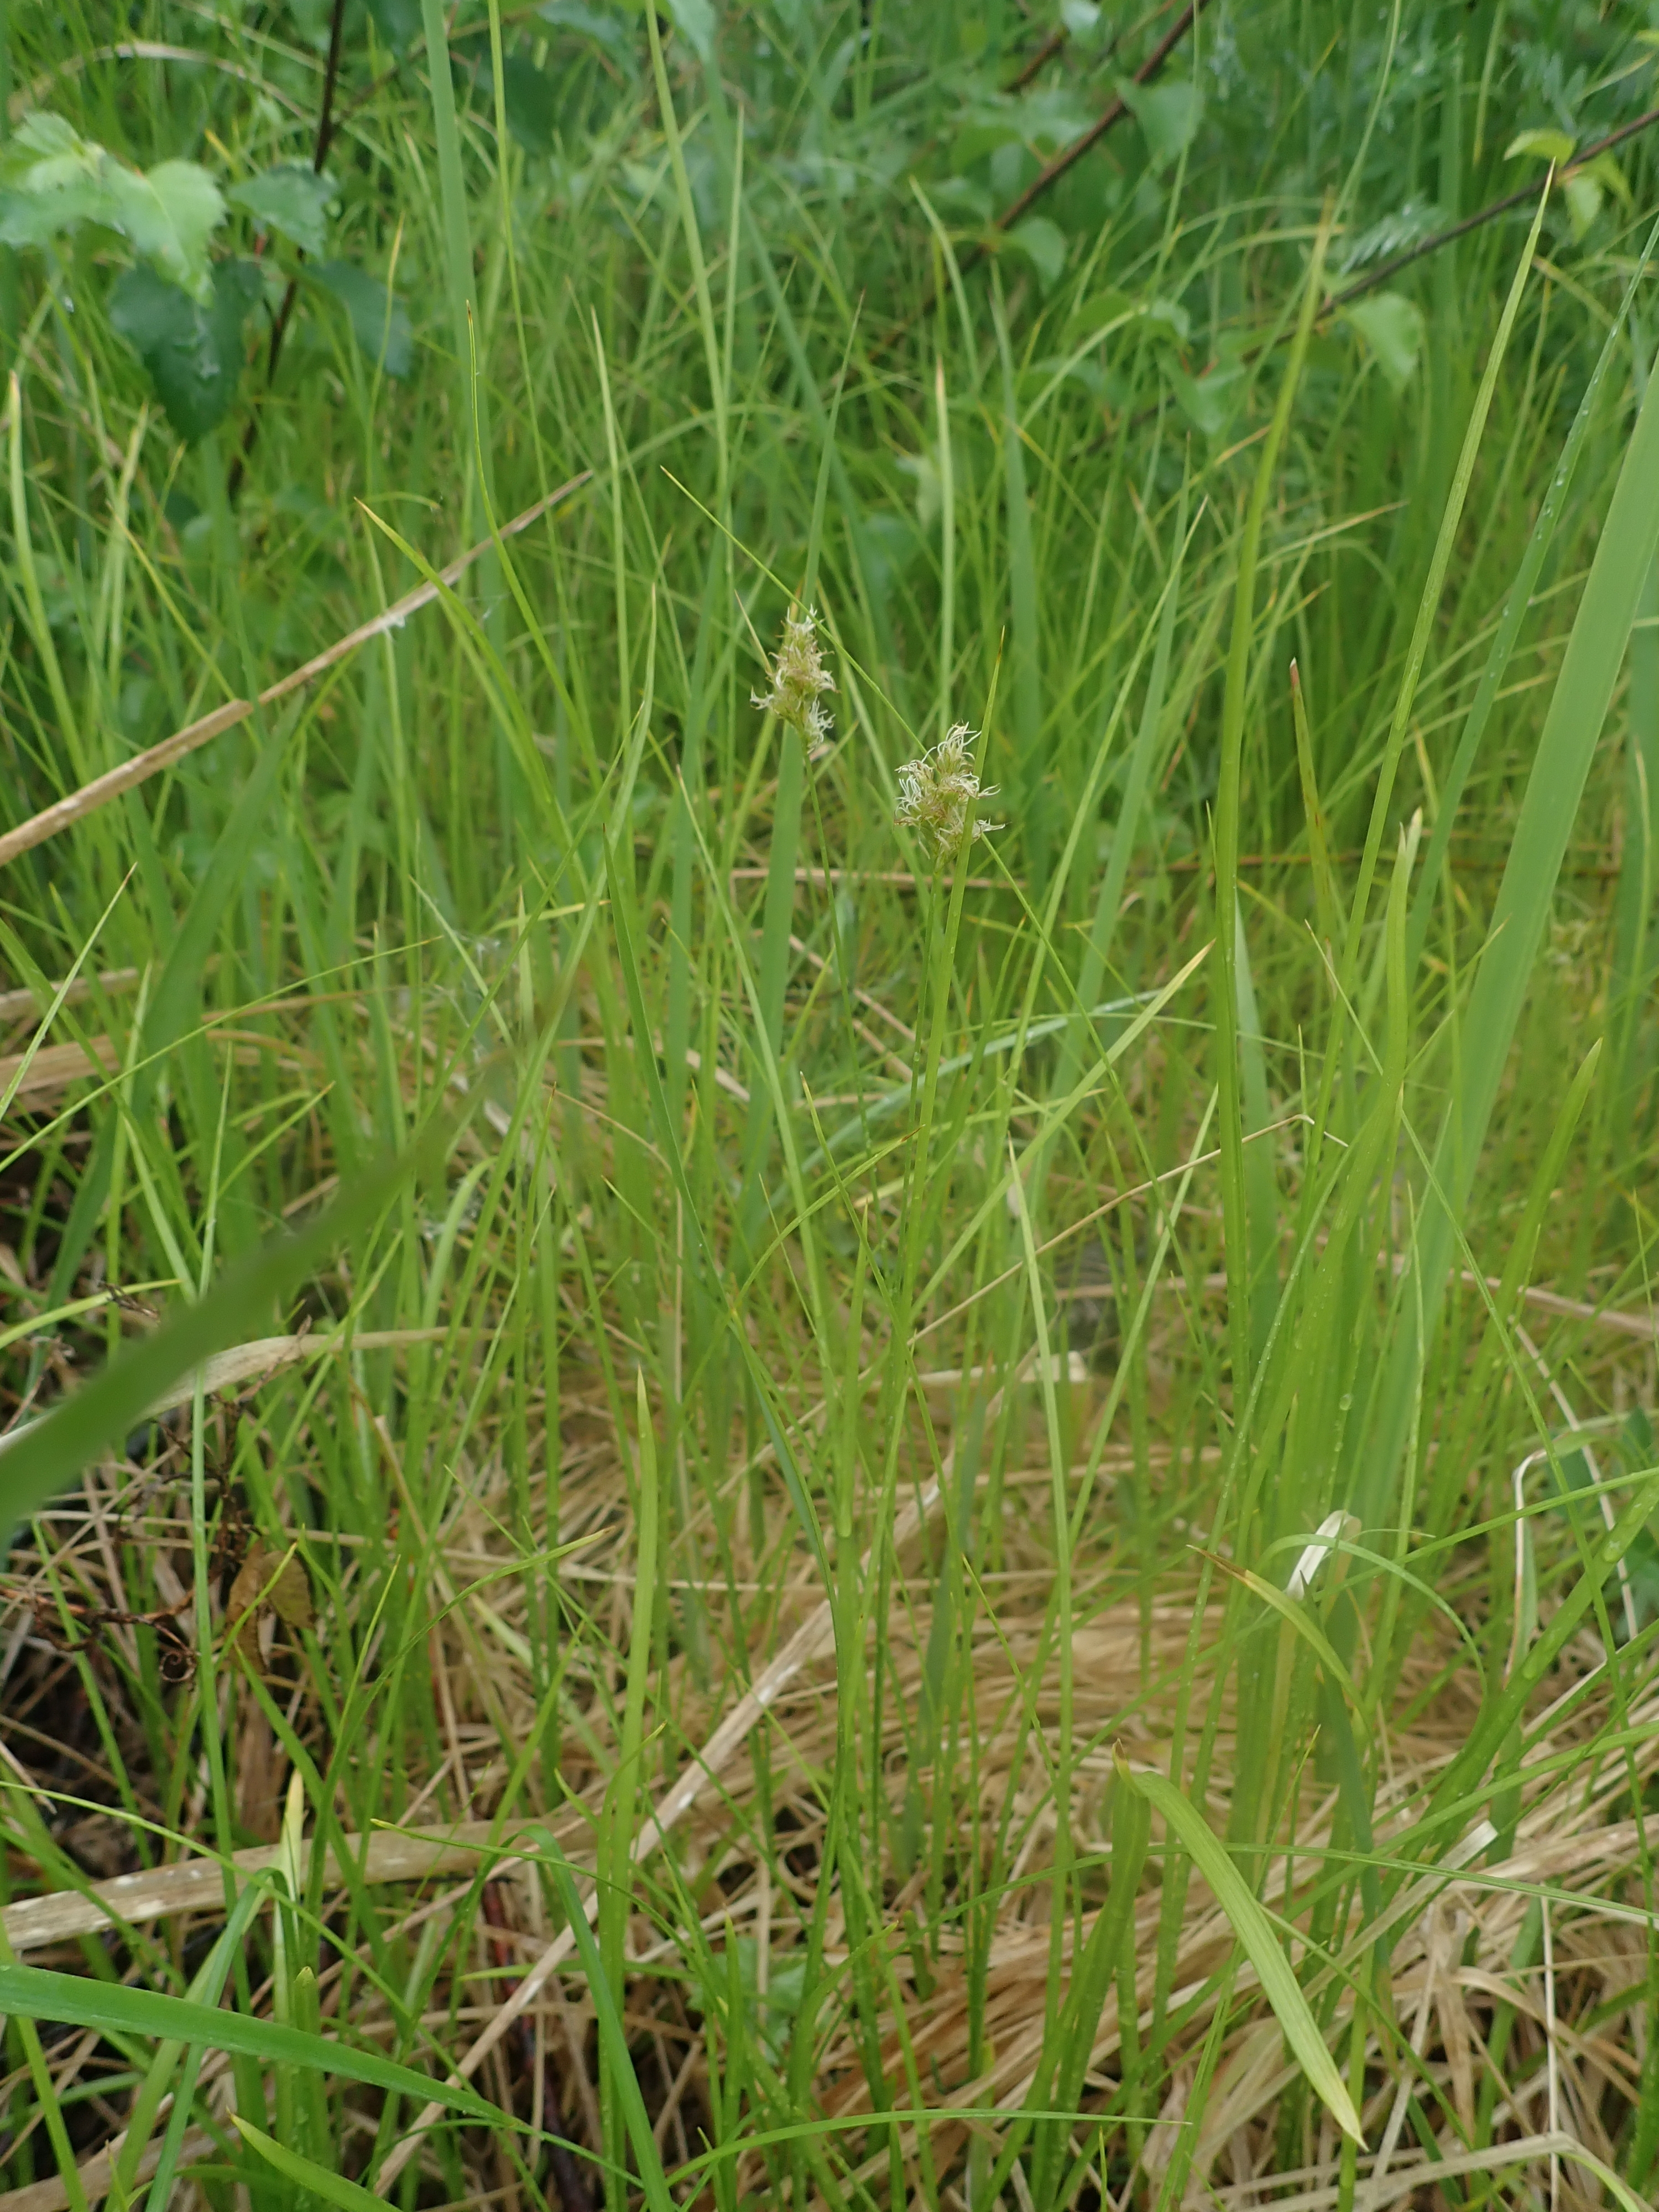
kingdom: Plantae
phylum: Tracheophyta
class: Liliopsida
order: Poales
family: Cyperaceae
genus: Carex
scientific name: Carex brizoides
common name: Quaking-grass sedge
